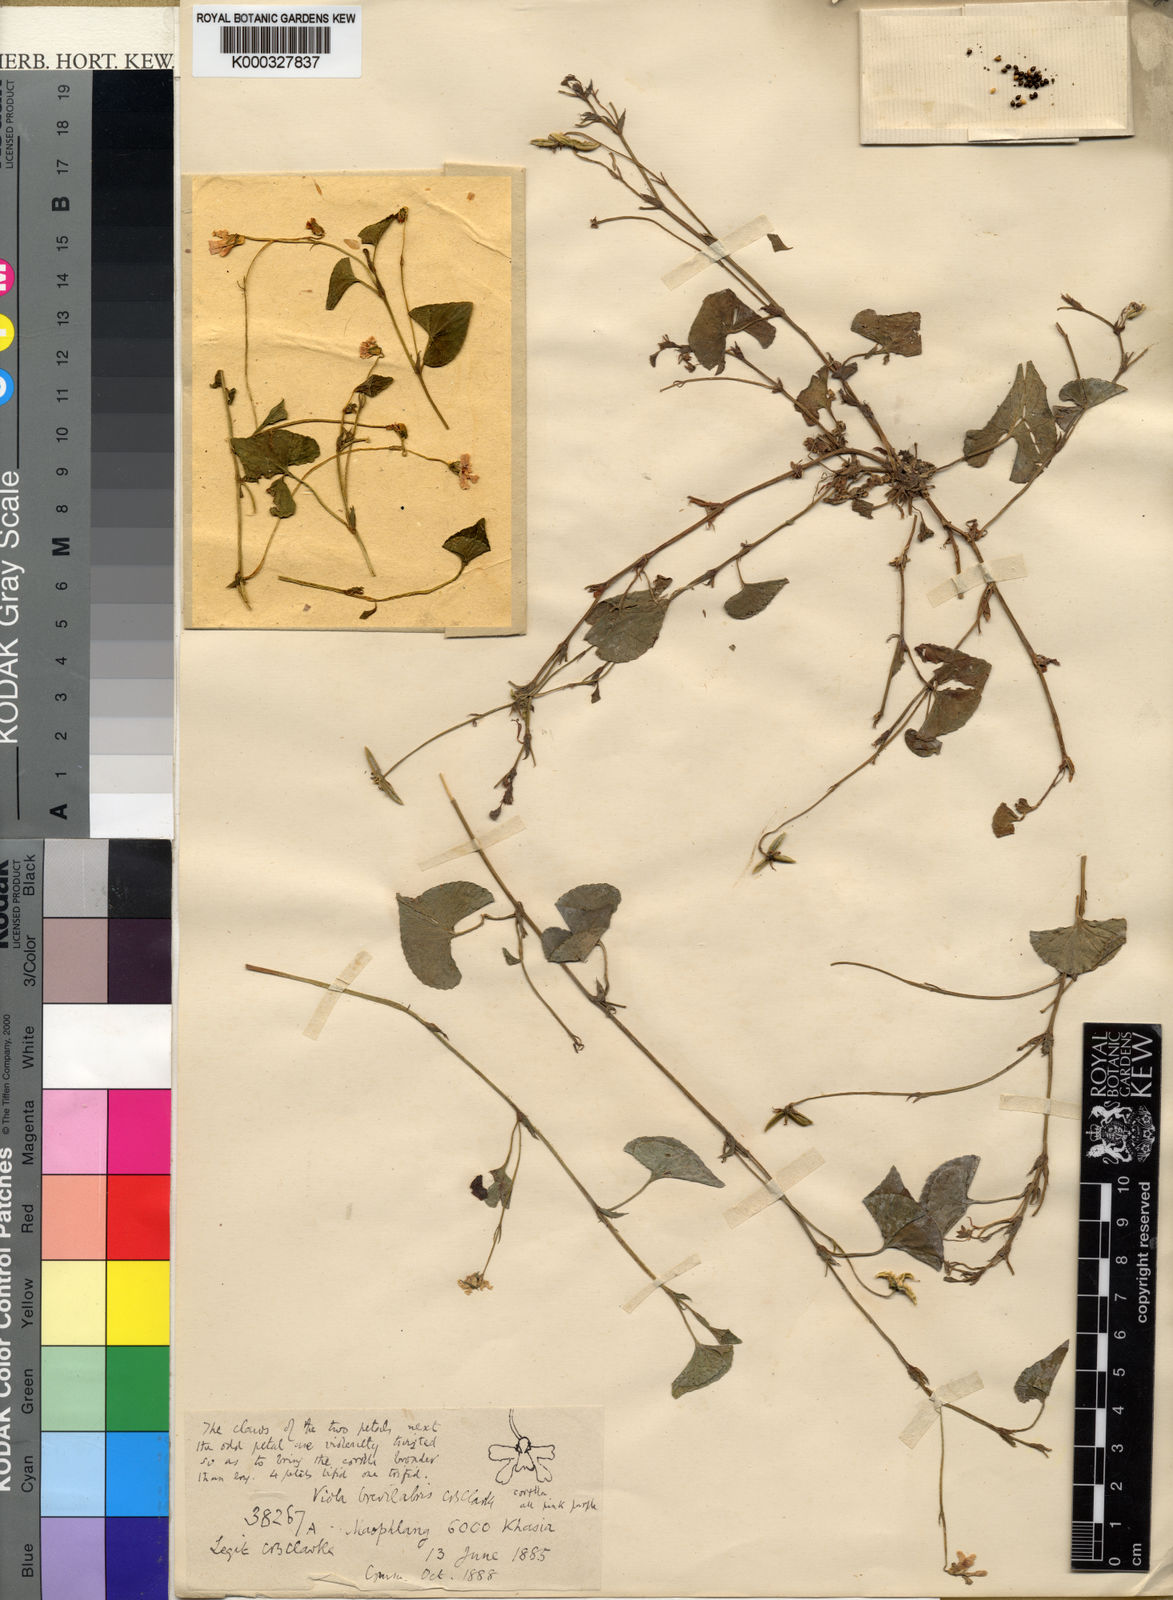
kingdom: Plantae
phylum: Tracheophyta
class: Magnoliopsida
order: Malpighiales
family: Violaceae
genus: Viola
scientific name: Viola
